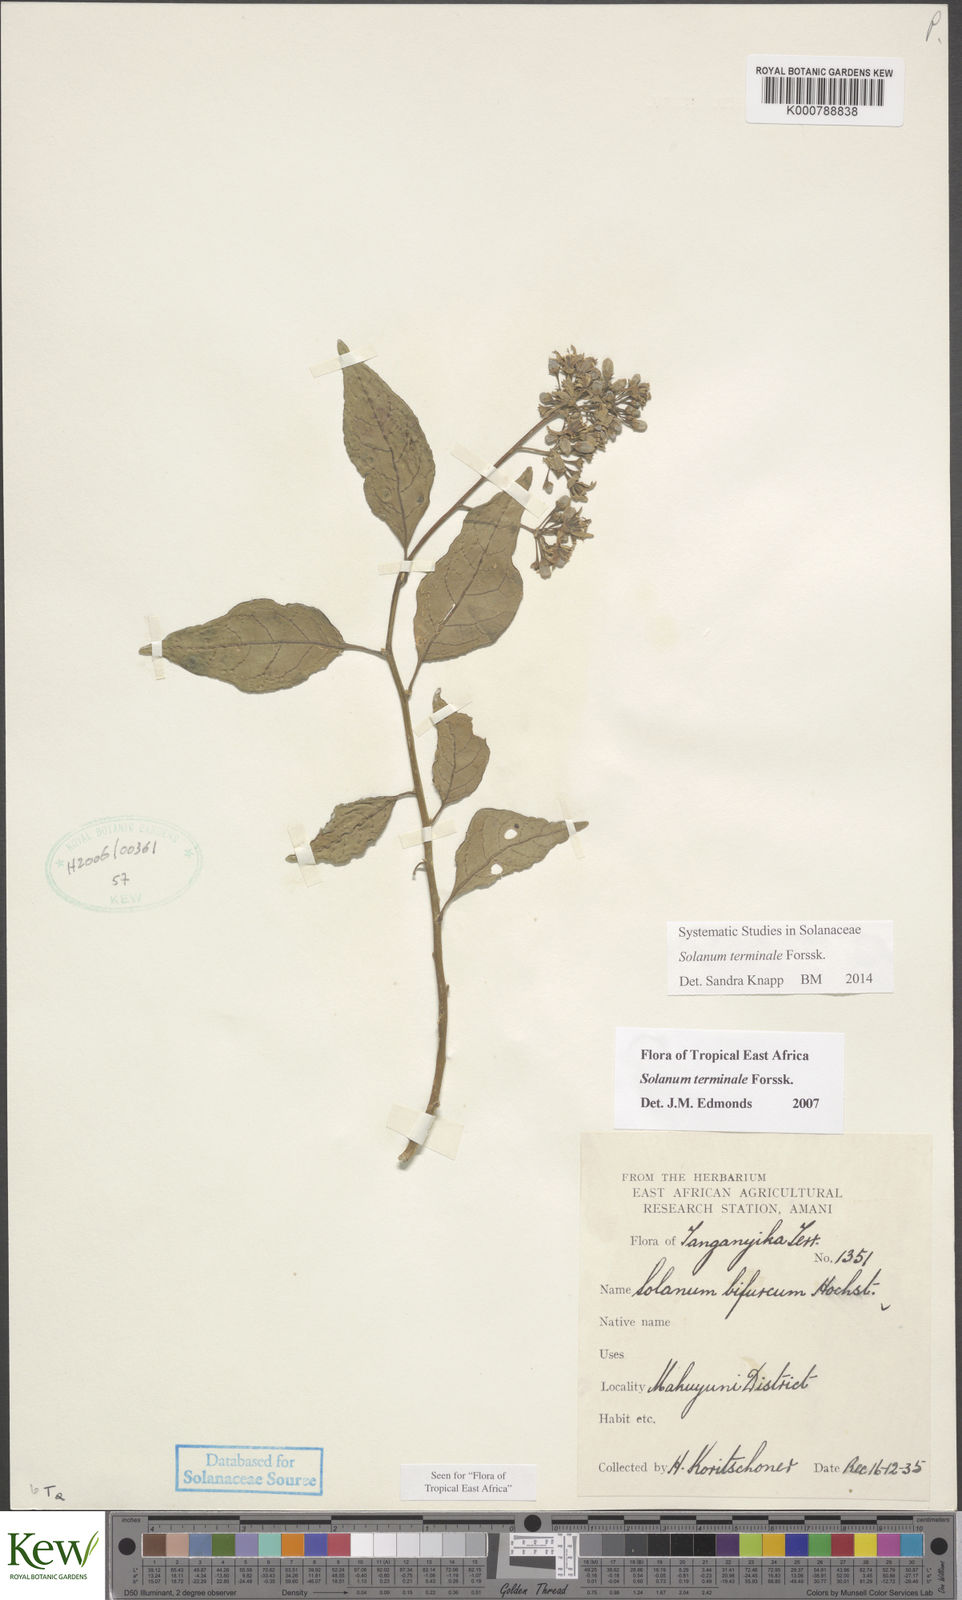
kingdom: Plantae
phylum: Tracheophyta
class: Magnoliopsida
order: Solanales
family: Solanaceae
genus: Solanum
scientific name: Solanum terminale
